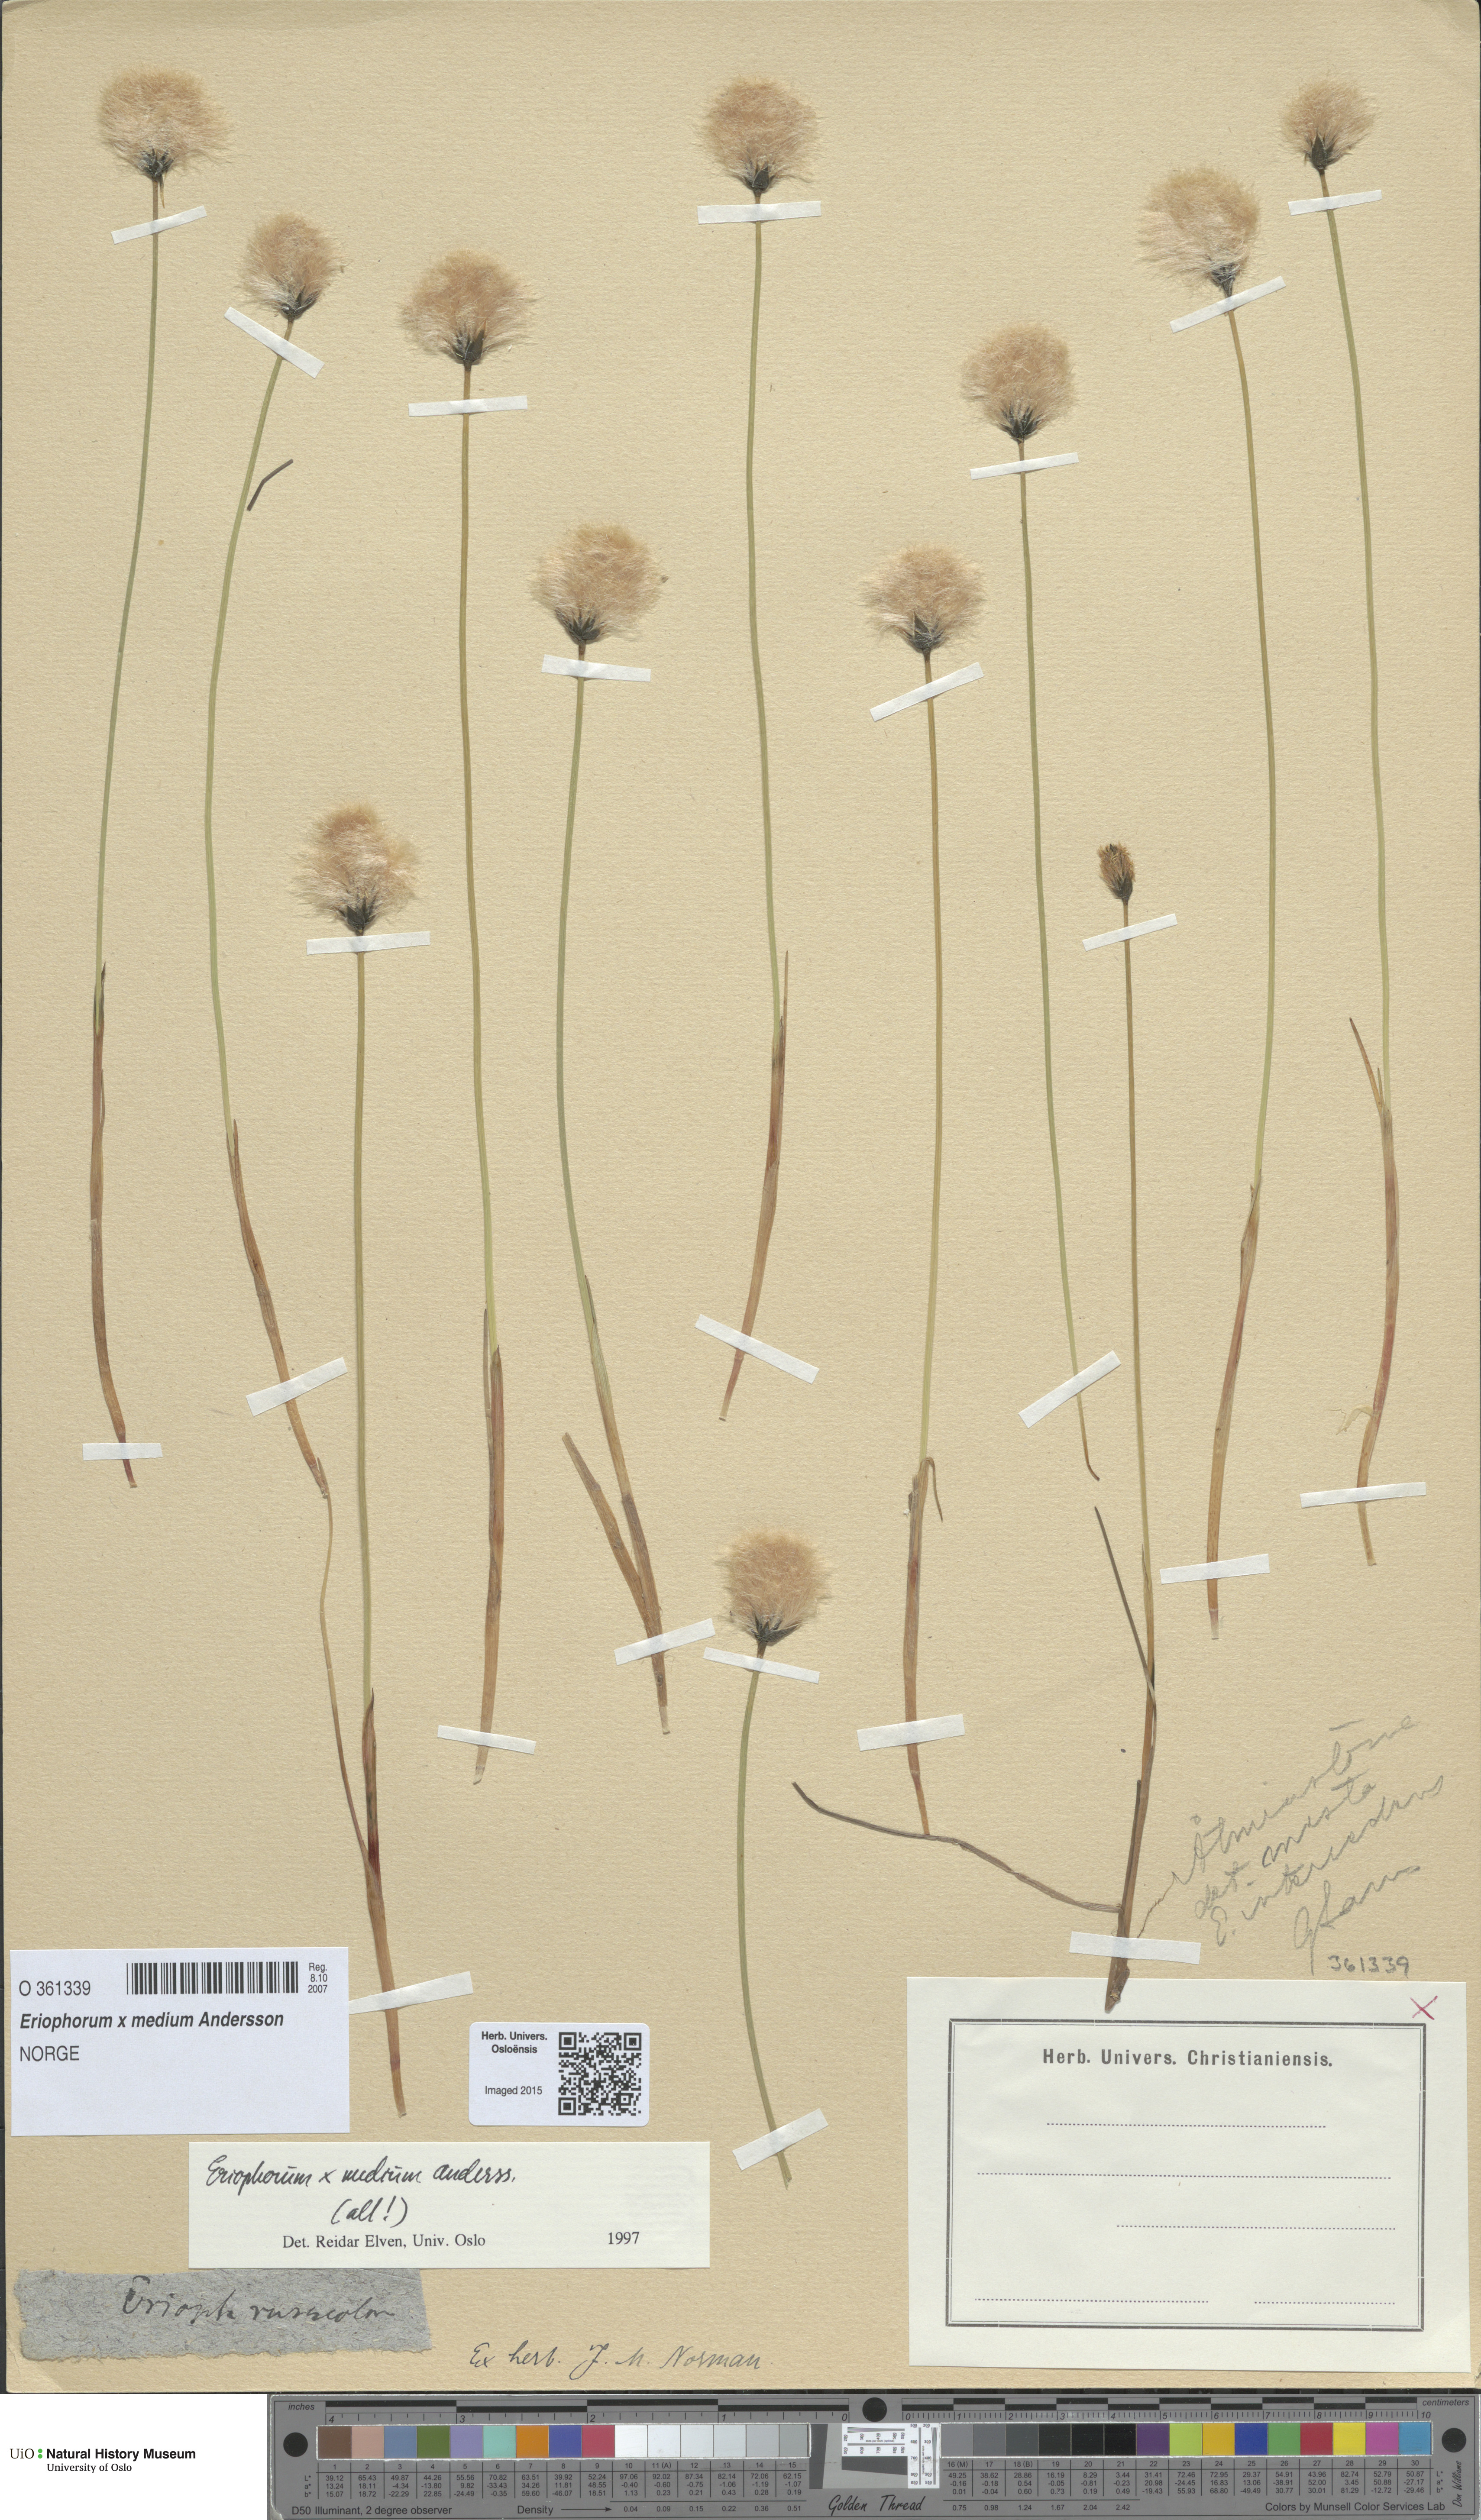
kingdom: Plantae
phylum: Tracheophyta
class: Liliopsida
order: Poales
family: Cyperaceae
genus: Eriophorum
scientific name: Eriophorum medium
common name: Intermediate cottongrass
